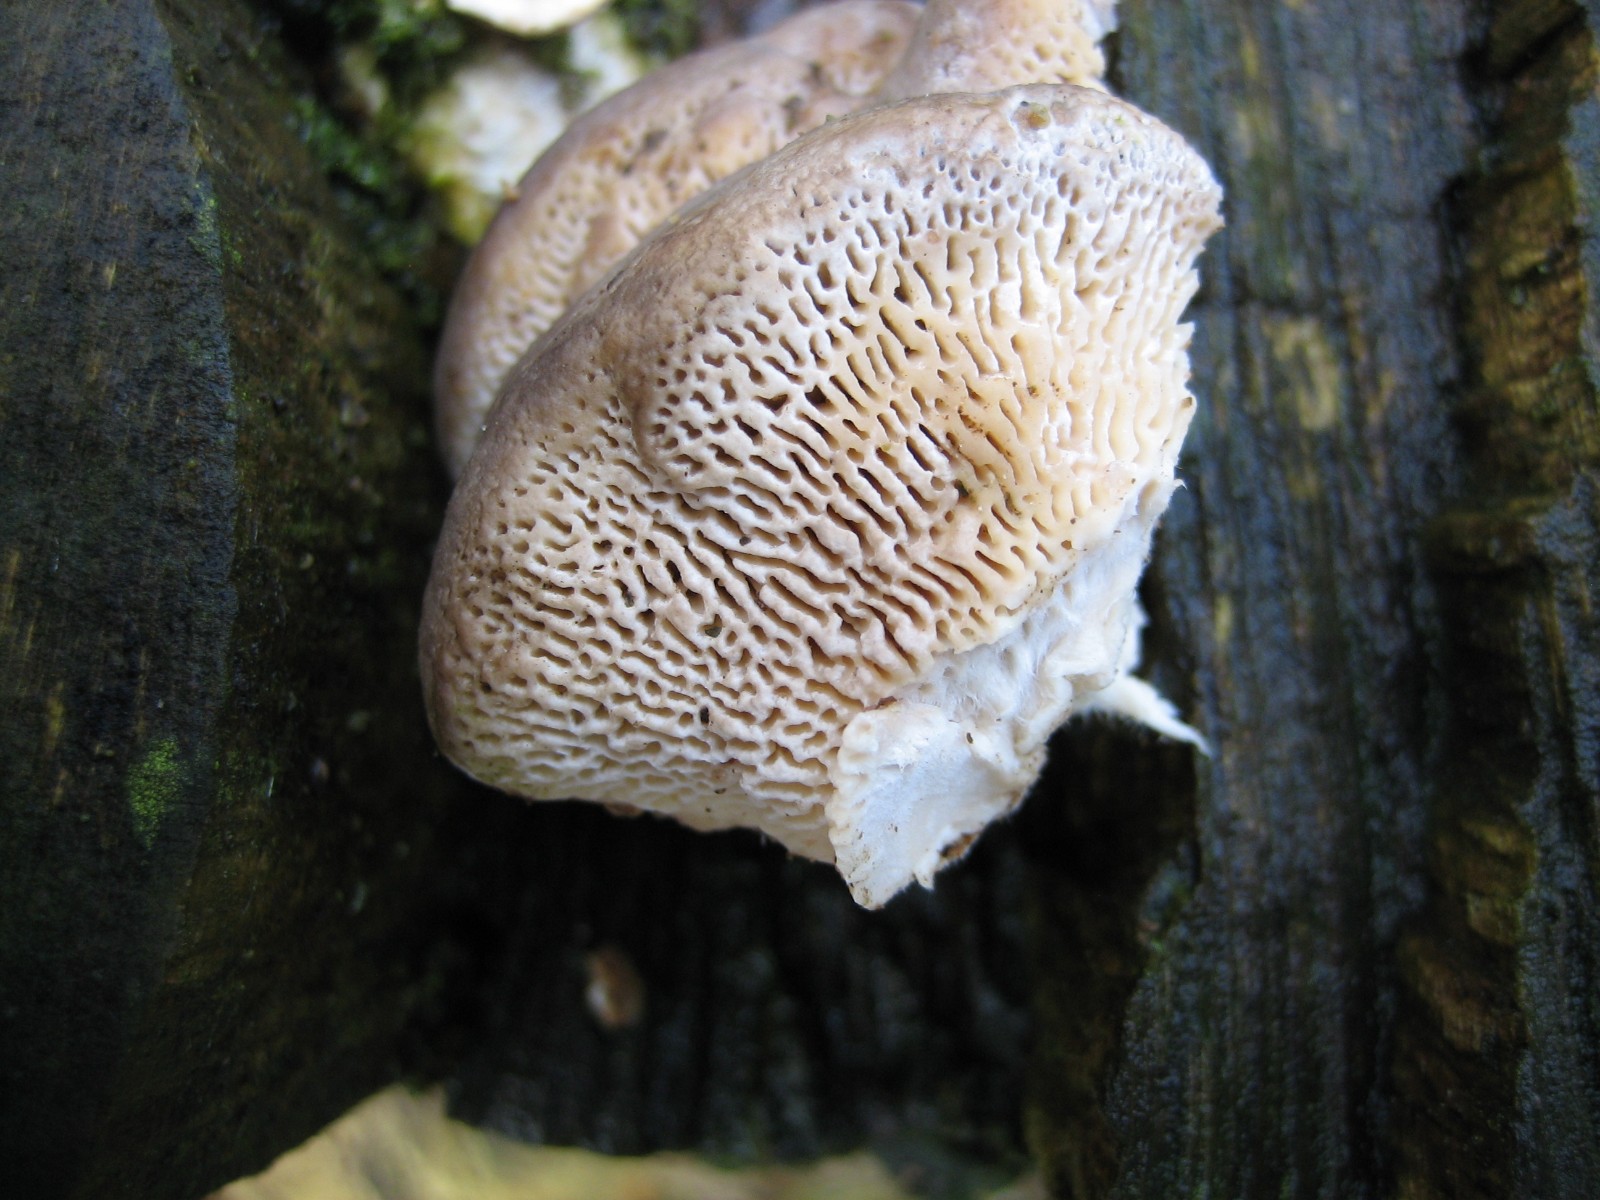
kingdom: Fungi
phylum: Basidiomycota
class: Agaricomycetes
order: Polyporales
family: Fomitopsidaceae
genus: Daedalea
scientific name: Daedalea quercina
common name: ege-labyrintsvamp
